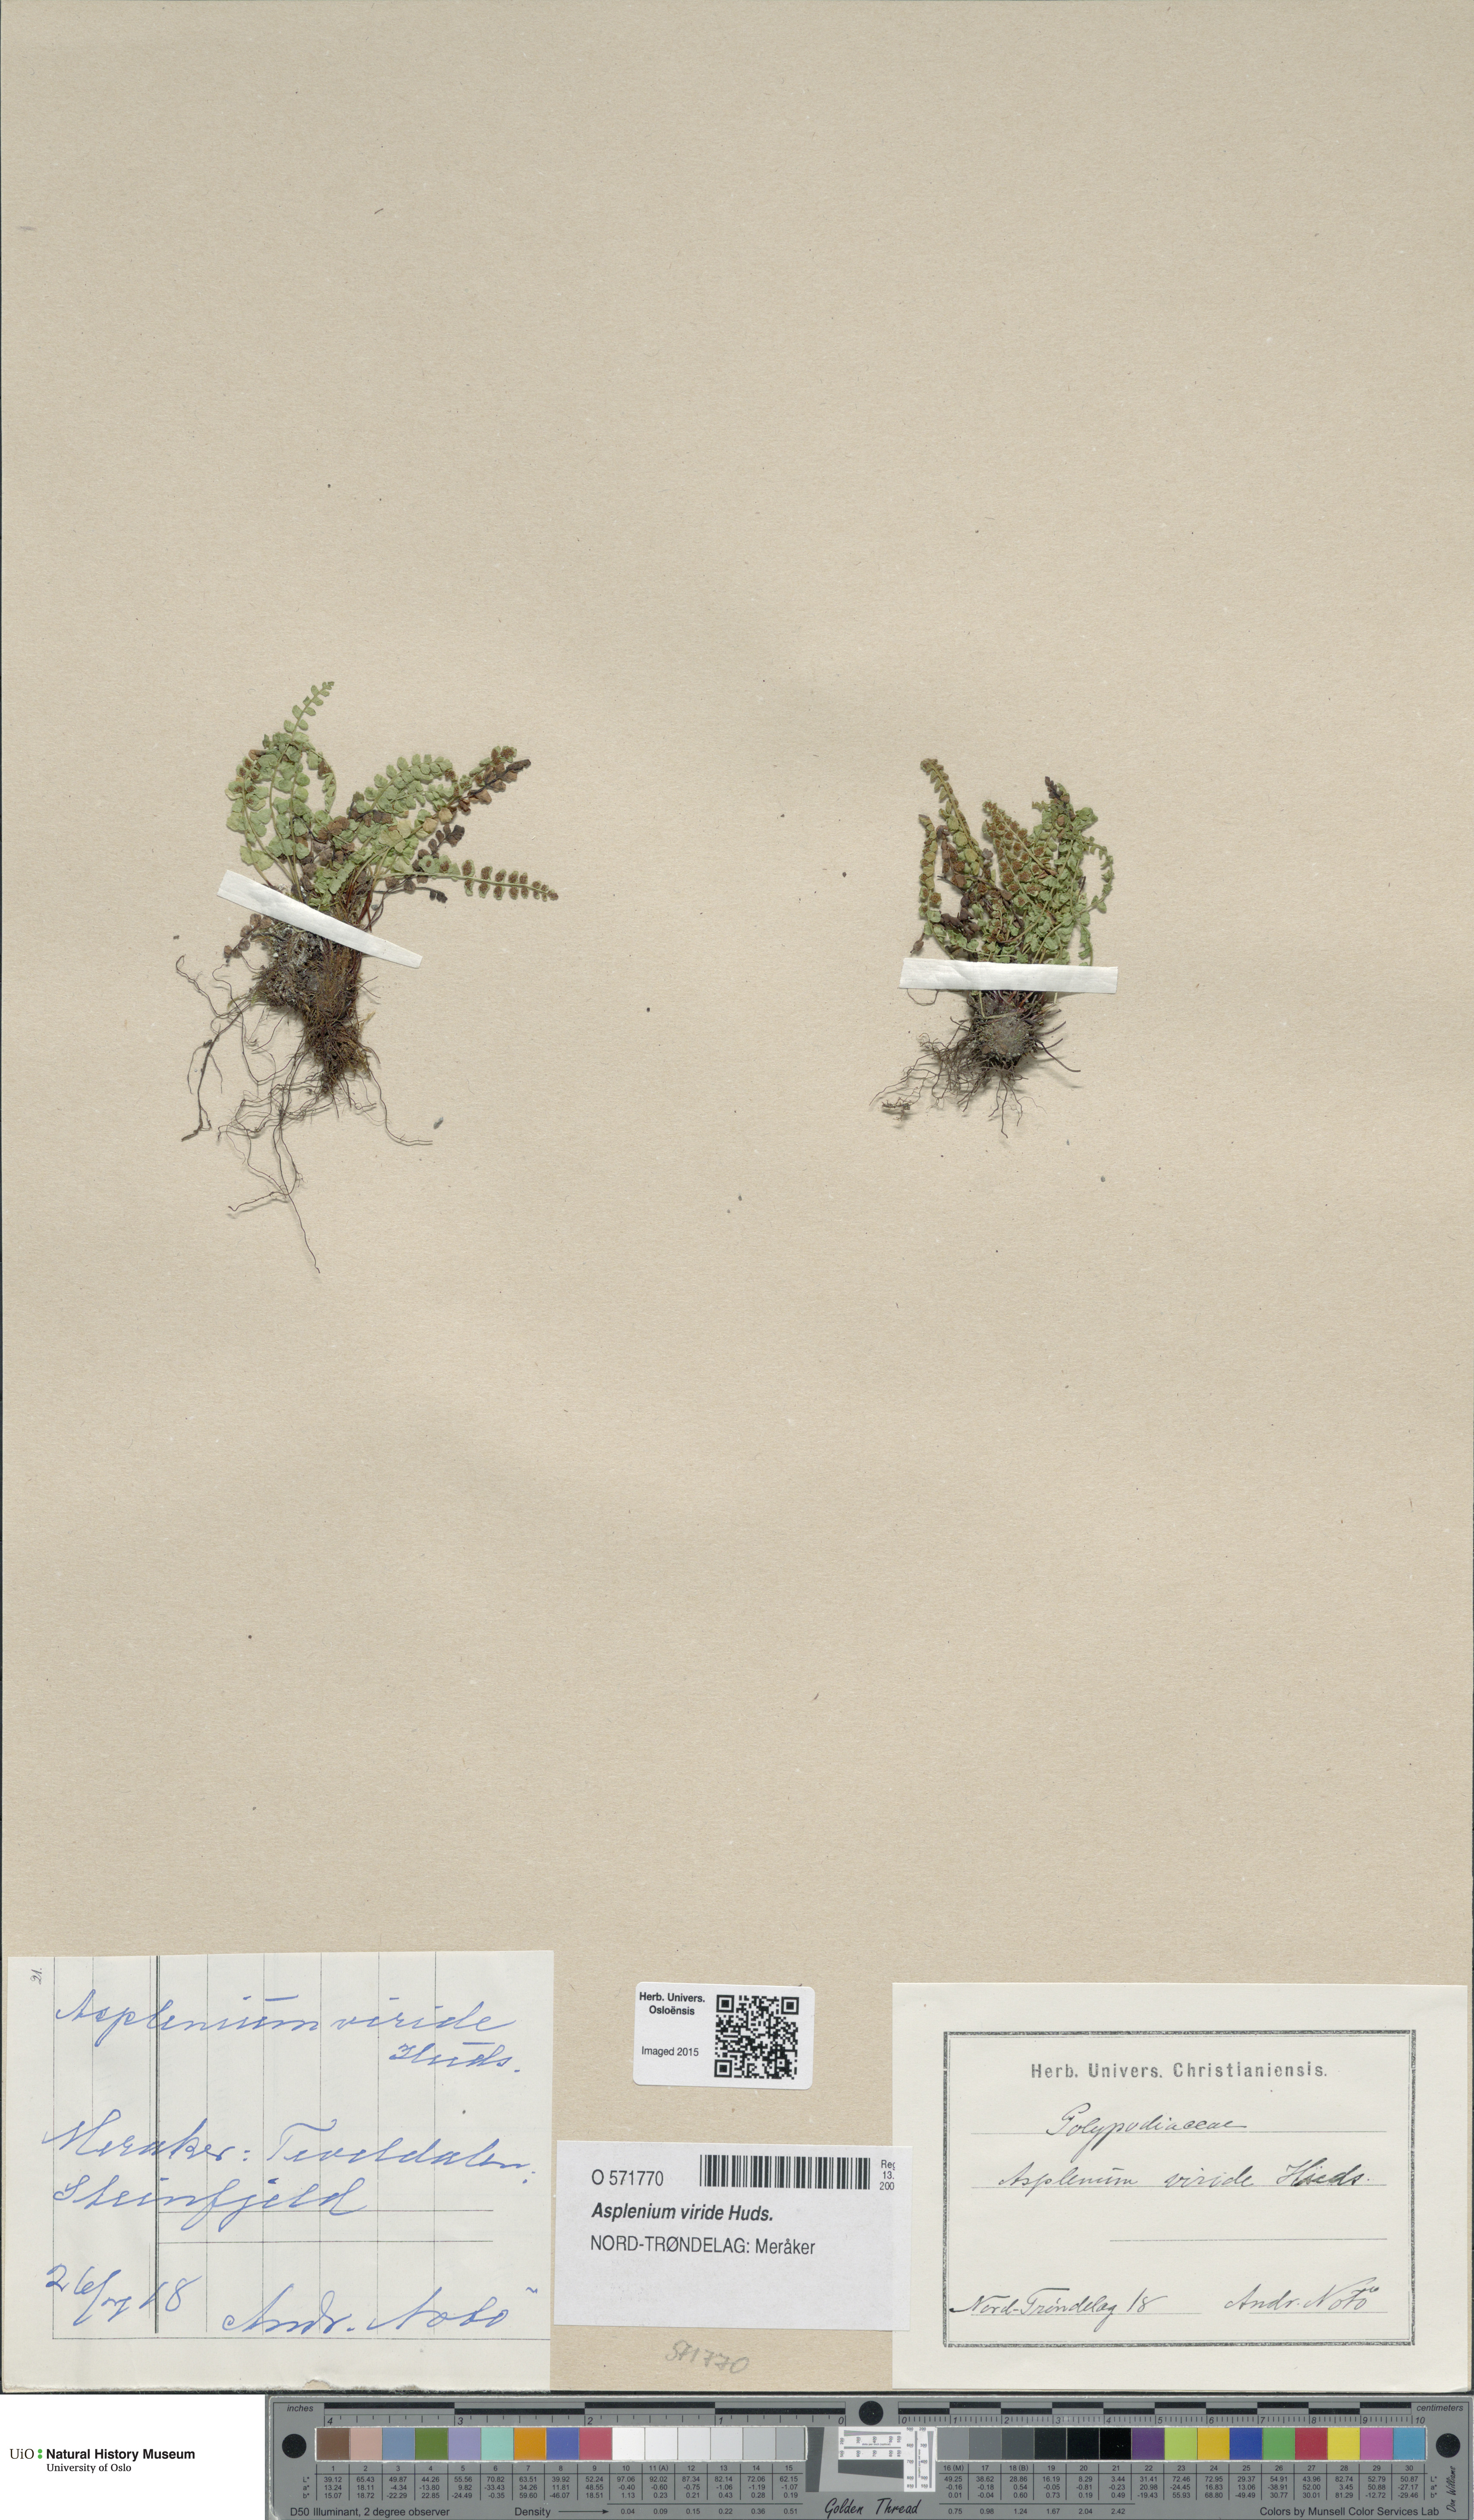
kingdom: Plantae
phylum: Tracheophyta
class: Polypodiopsida
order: Polypodiales
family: Aspleniaceae
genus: Asplenium
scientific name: Asplenium viride
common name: Green spleenwort
